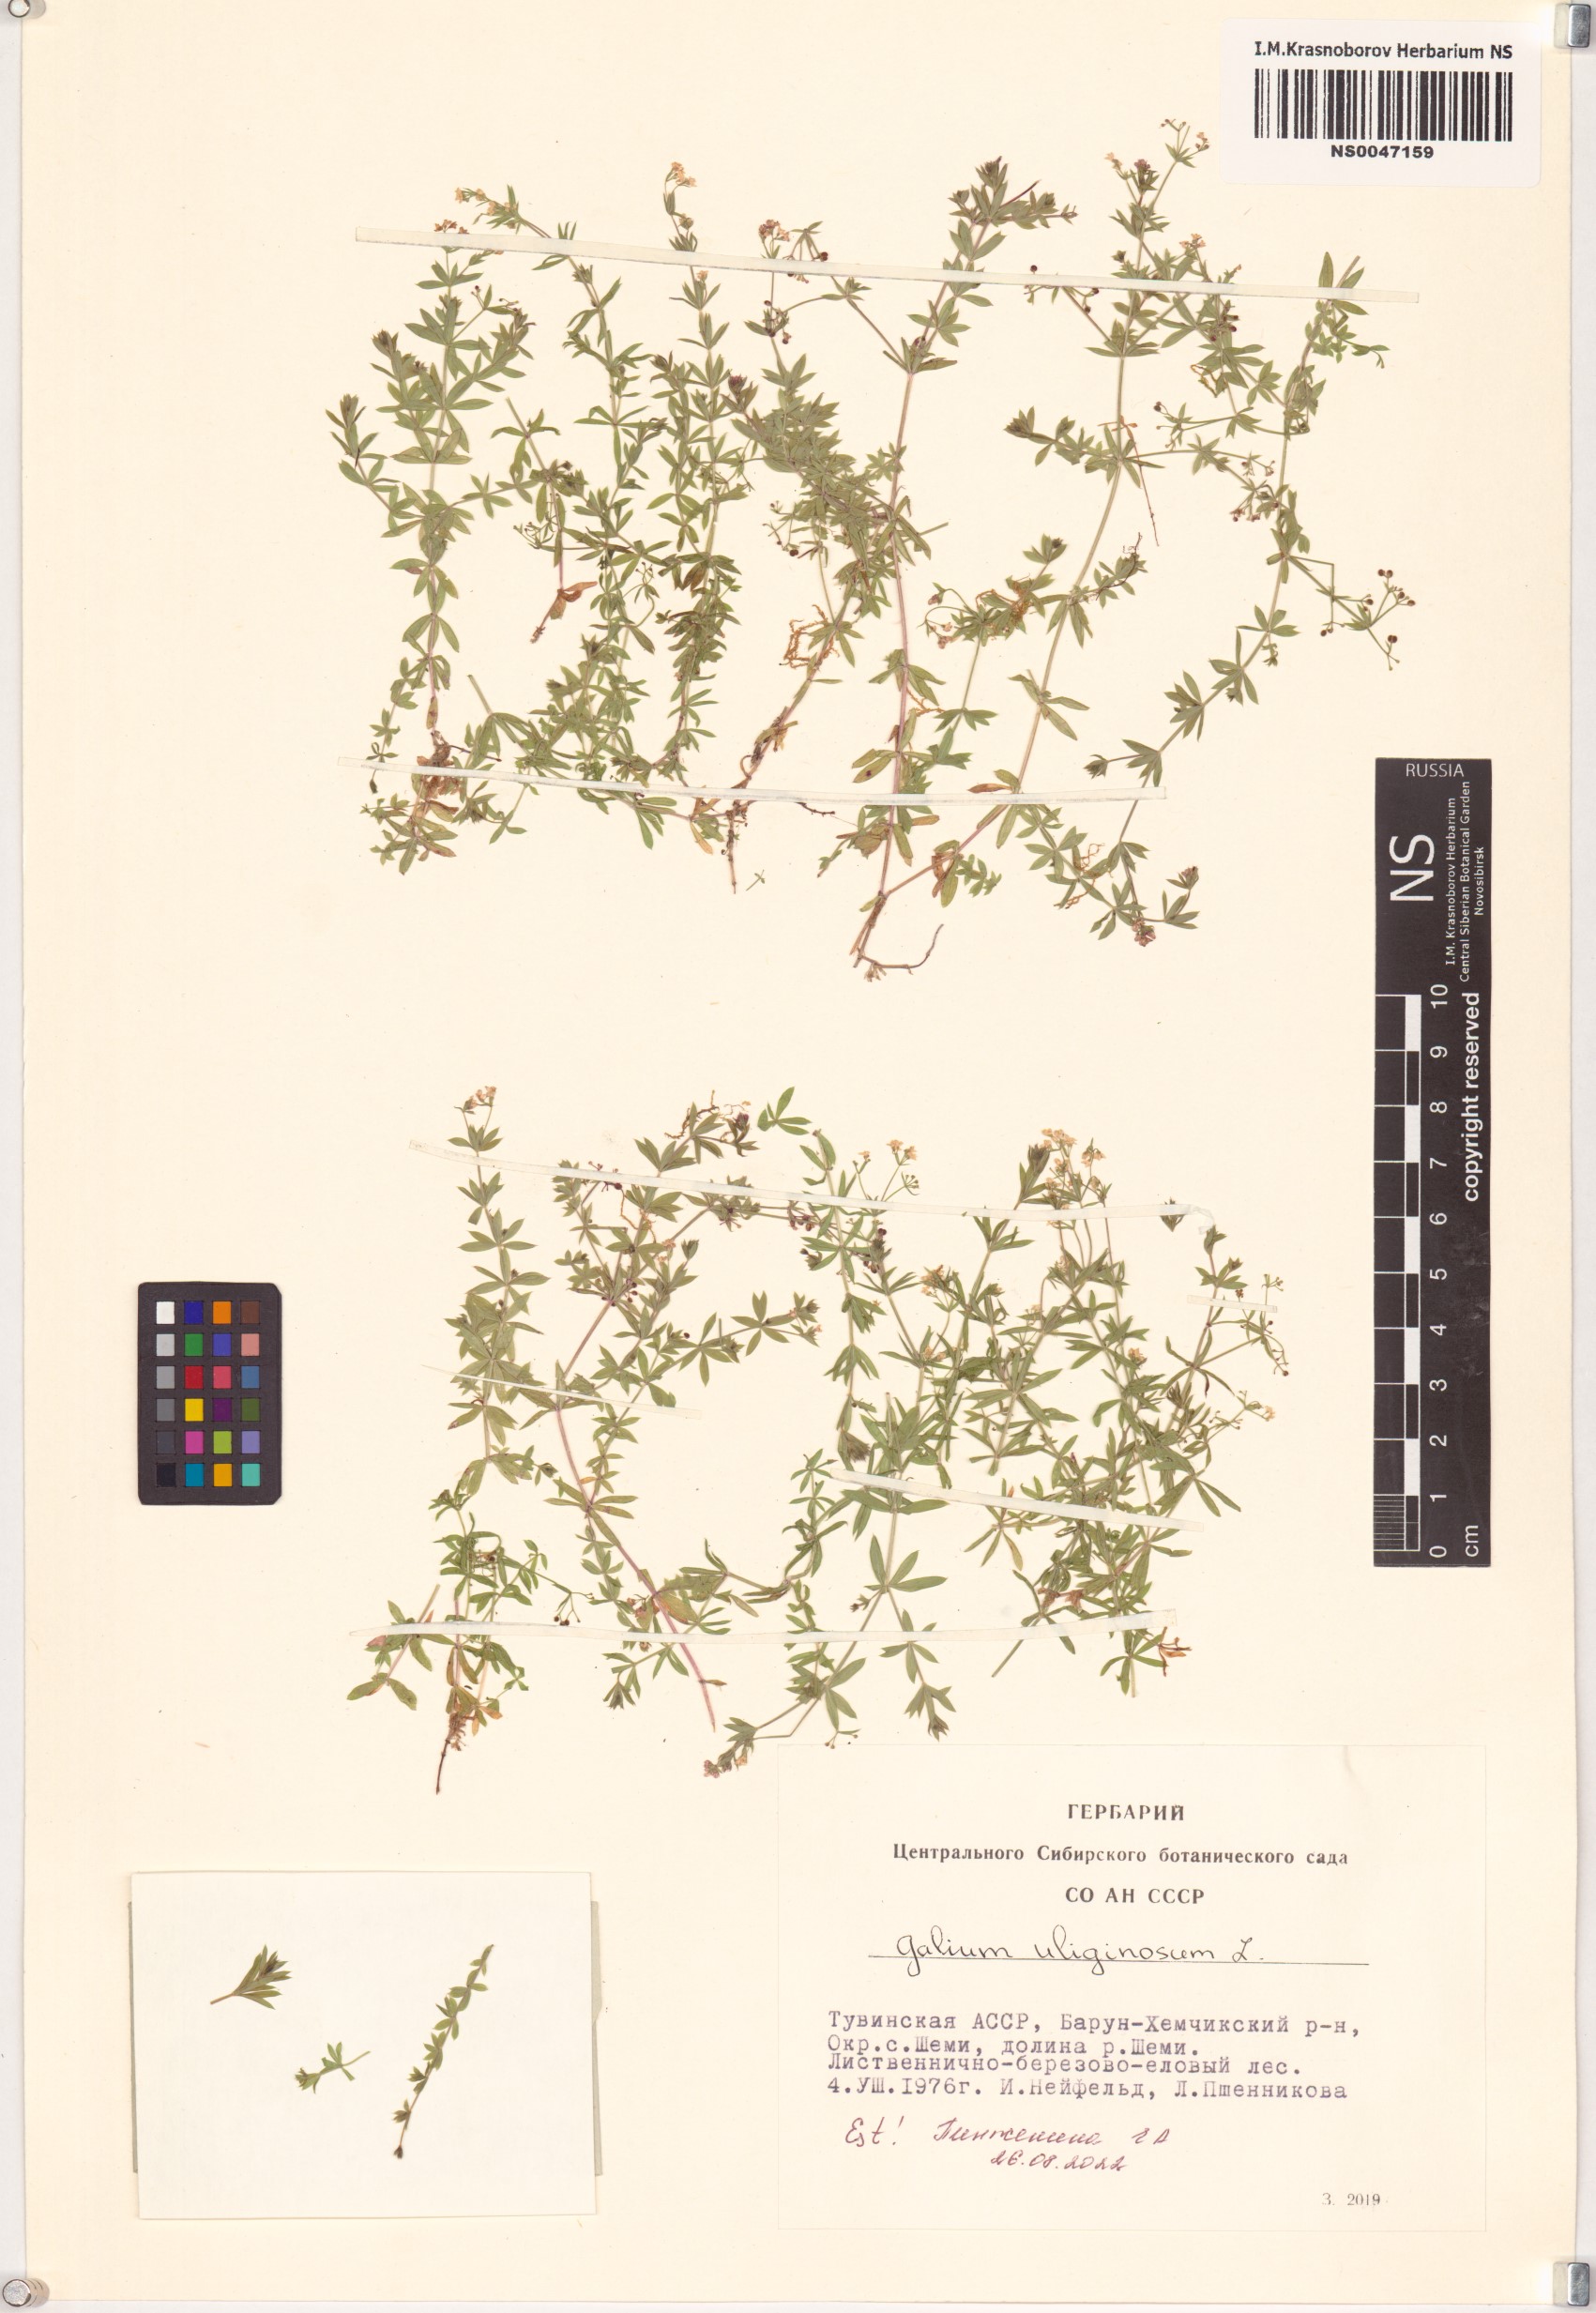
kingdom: Plantae
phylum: Tracheophyta
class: Magnoliopsida
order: Gentianales
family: Rubiaceae
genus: Galium
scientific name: Galium uliginosum
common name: Fen bedstraw
